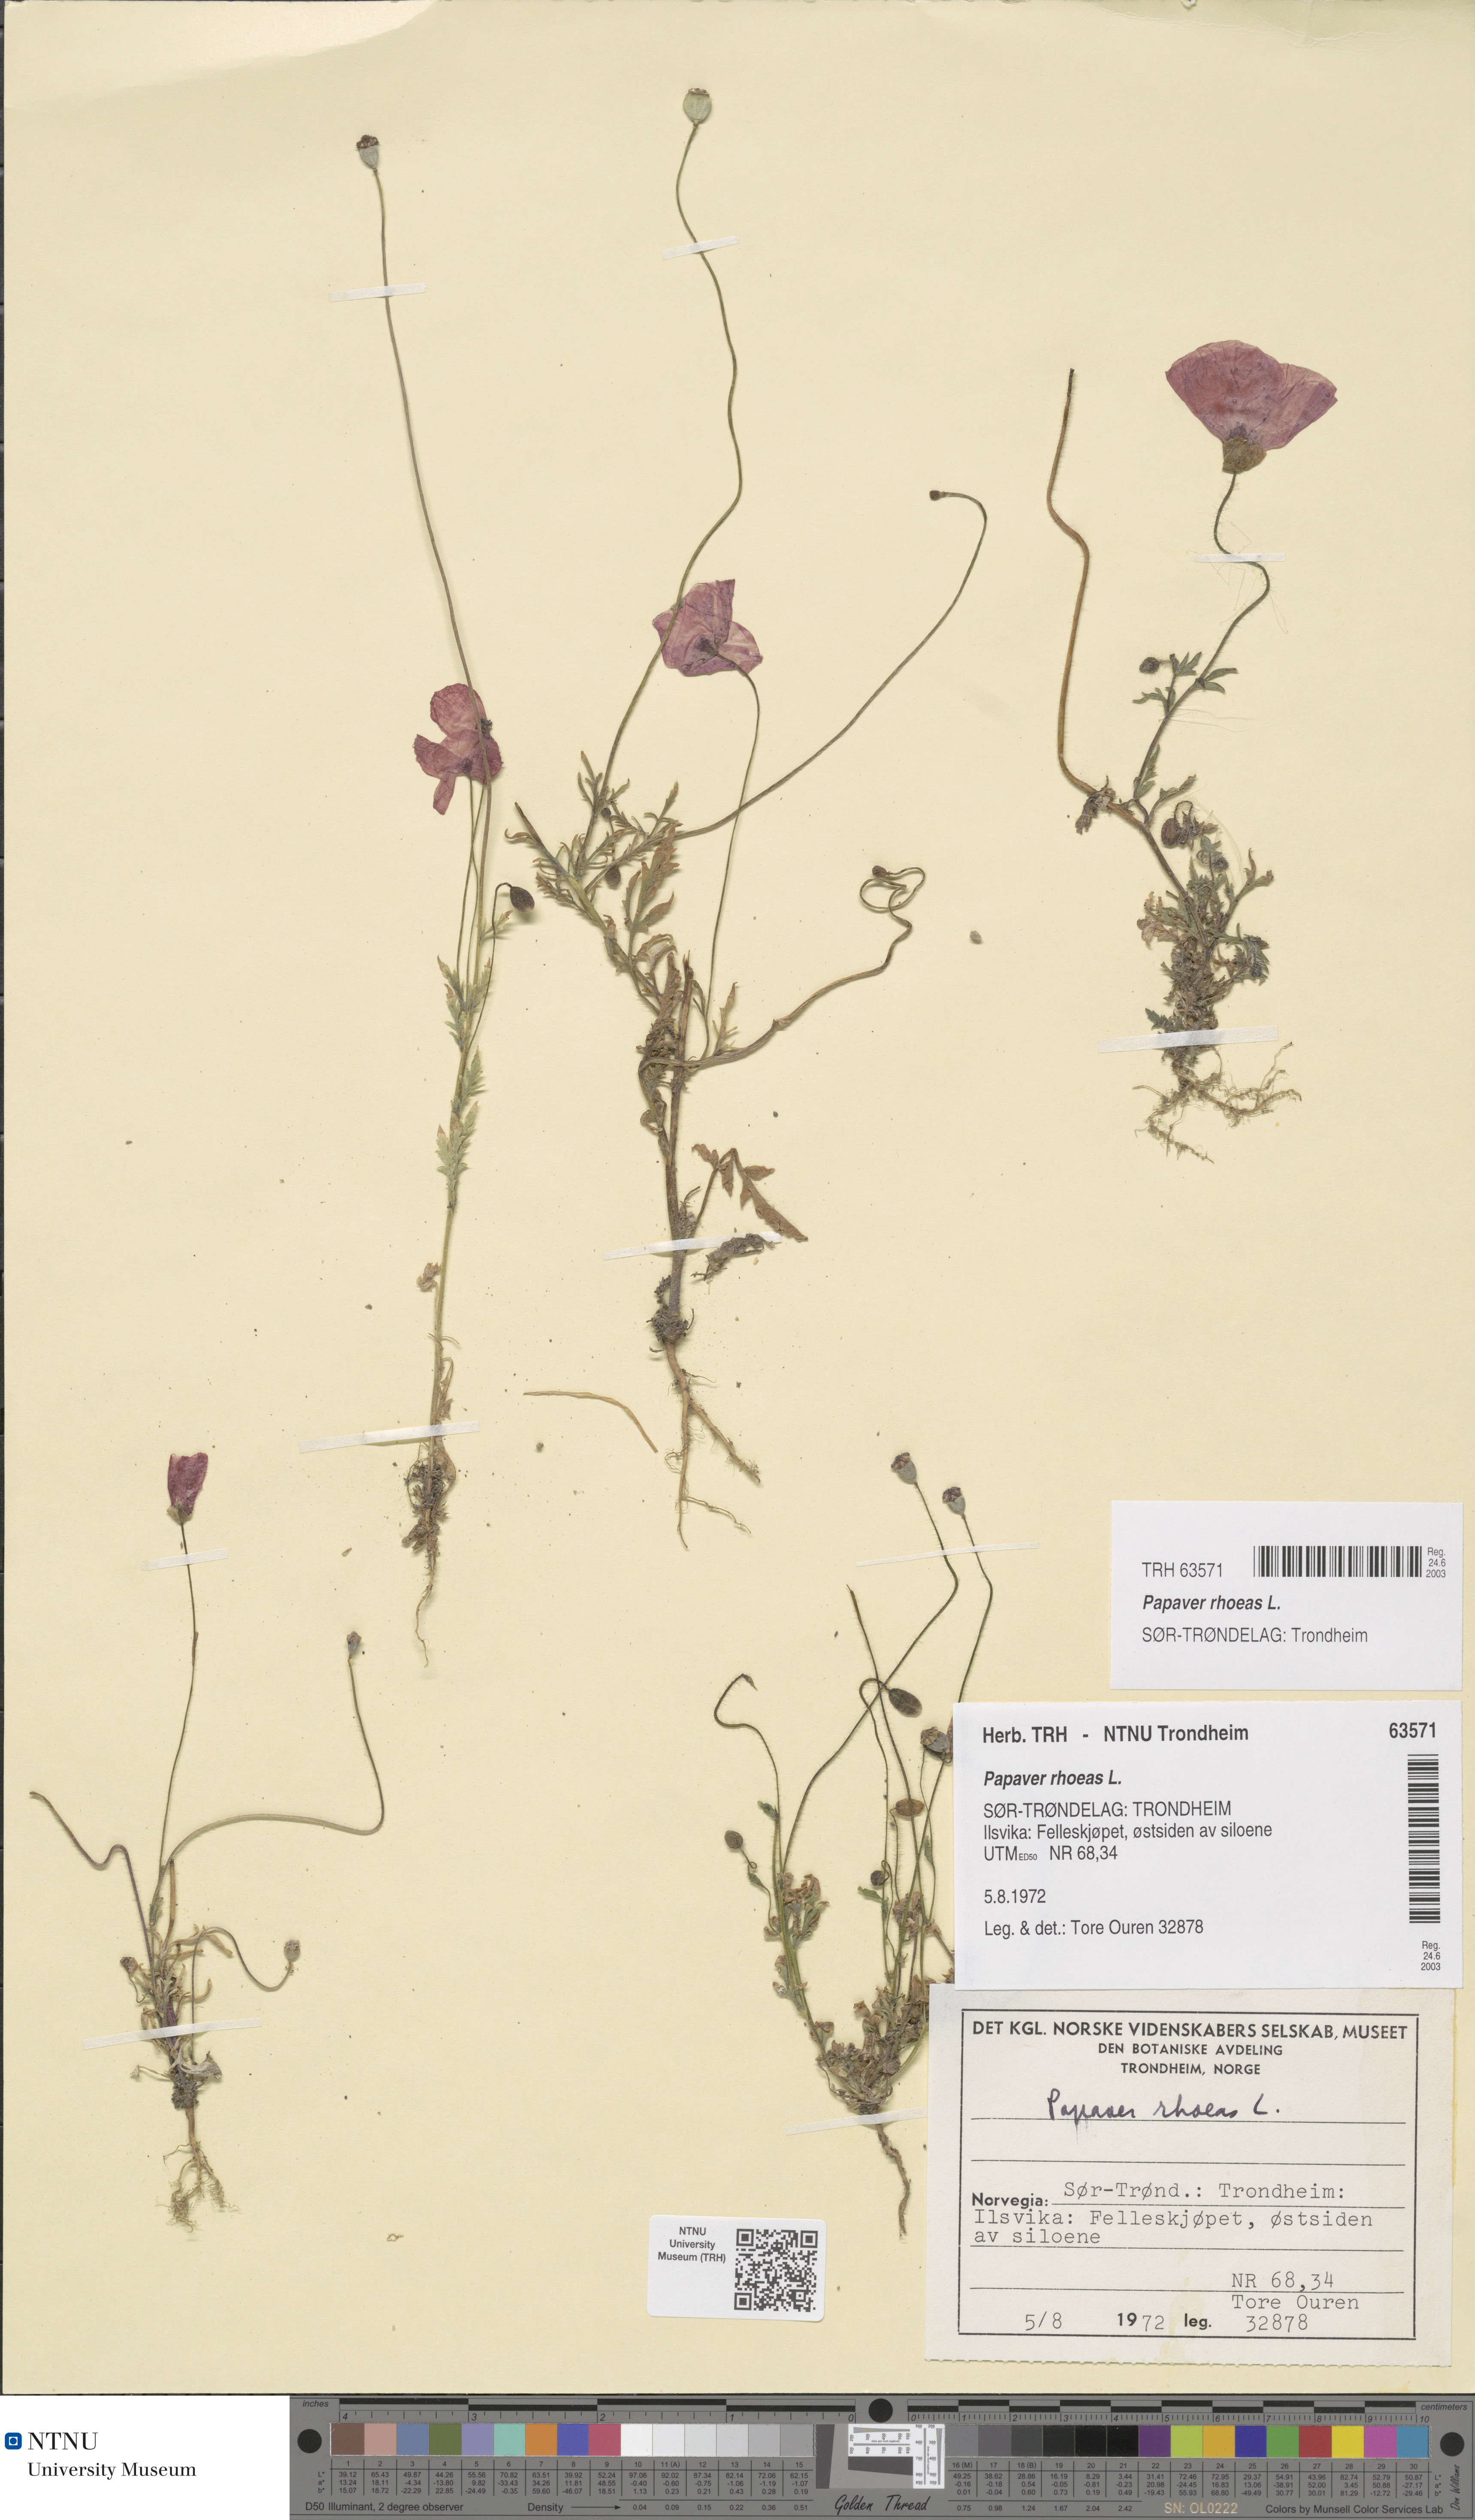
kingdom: Plantae
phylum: Tracheophyta
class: Magnoliopsida
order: Ranunculales
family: Papaveraceae
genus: Papaver
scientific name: Papaver rhoeas
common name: Corn poppy
